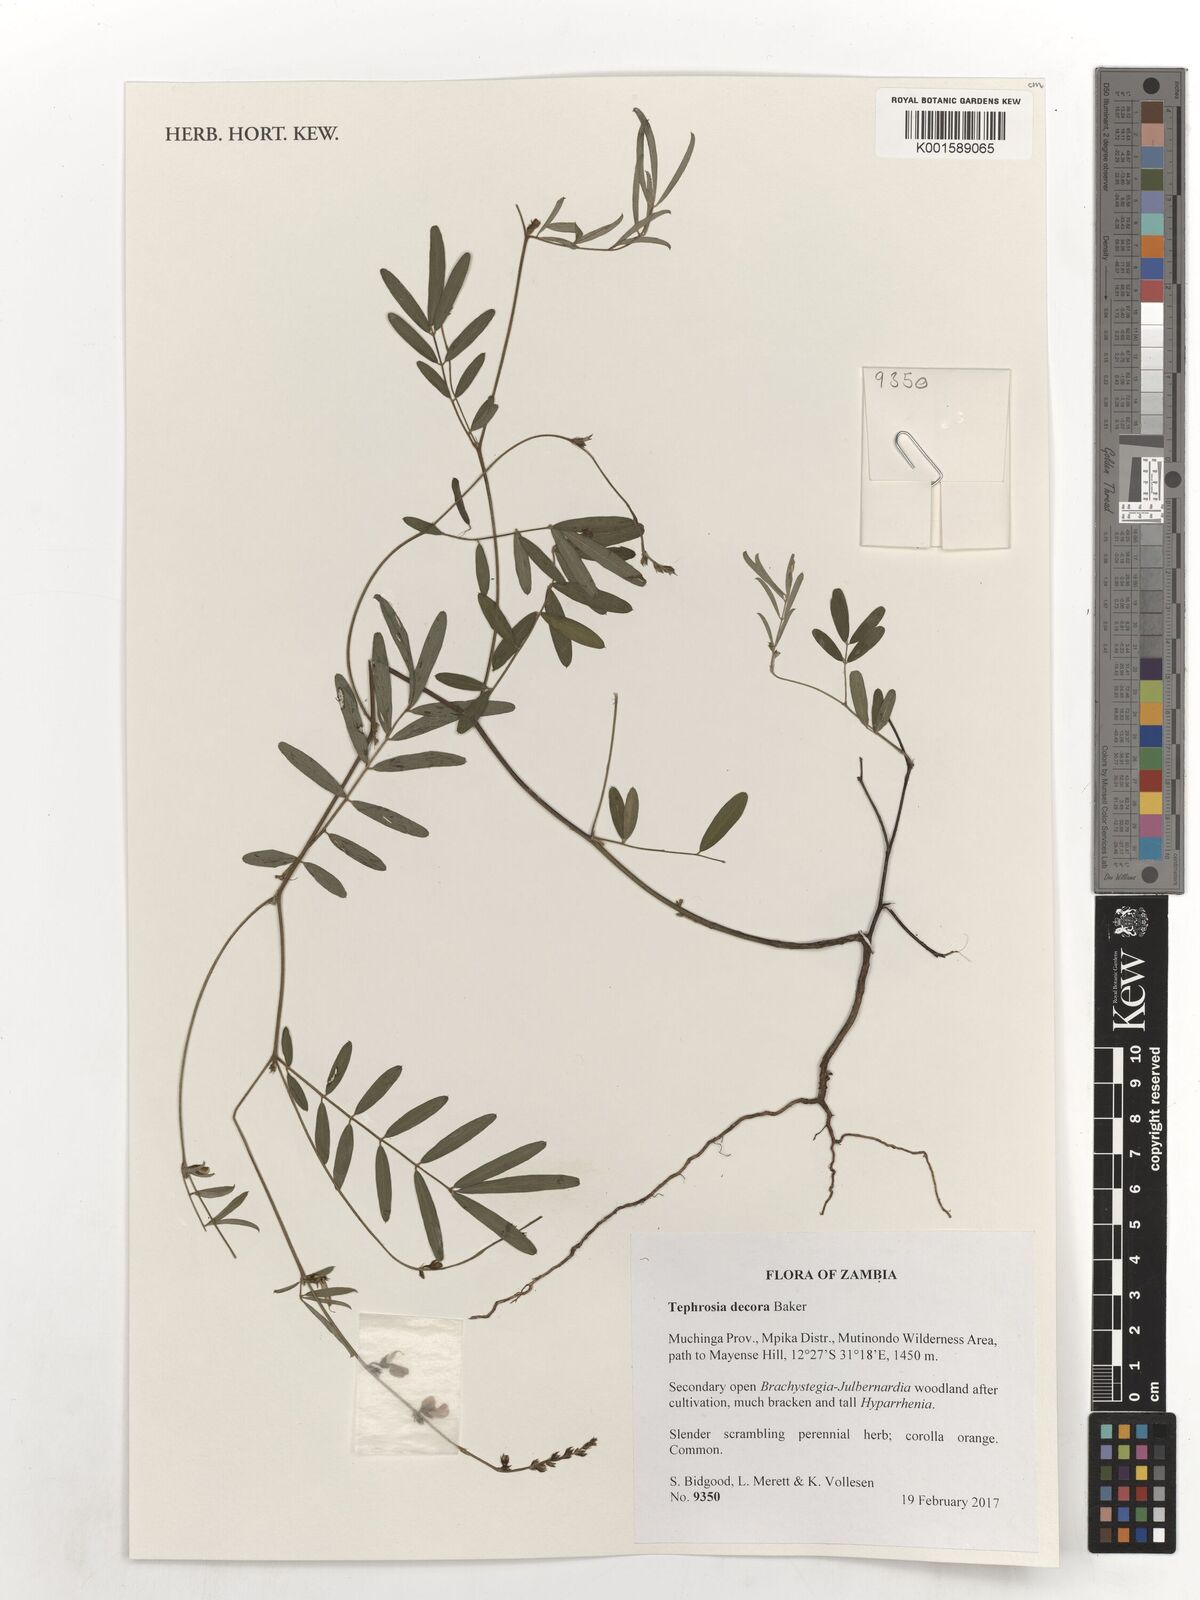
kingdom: Plantae
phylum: Tracheophyta
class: Magnoliopsida
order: Fabales
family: Fabaceae
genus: Tephrosia
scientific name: Tephrosia decora
